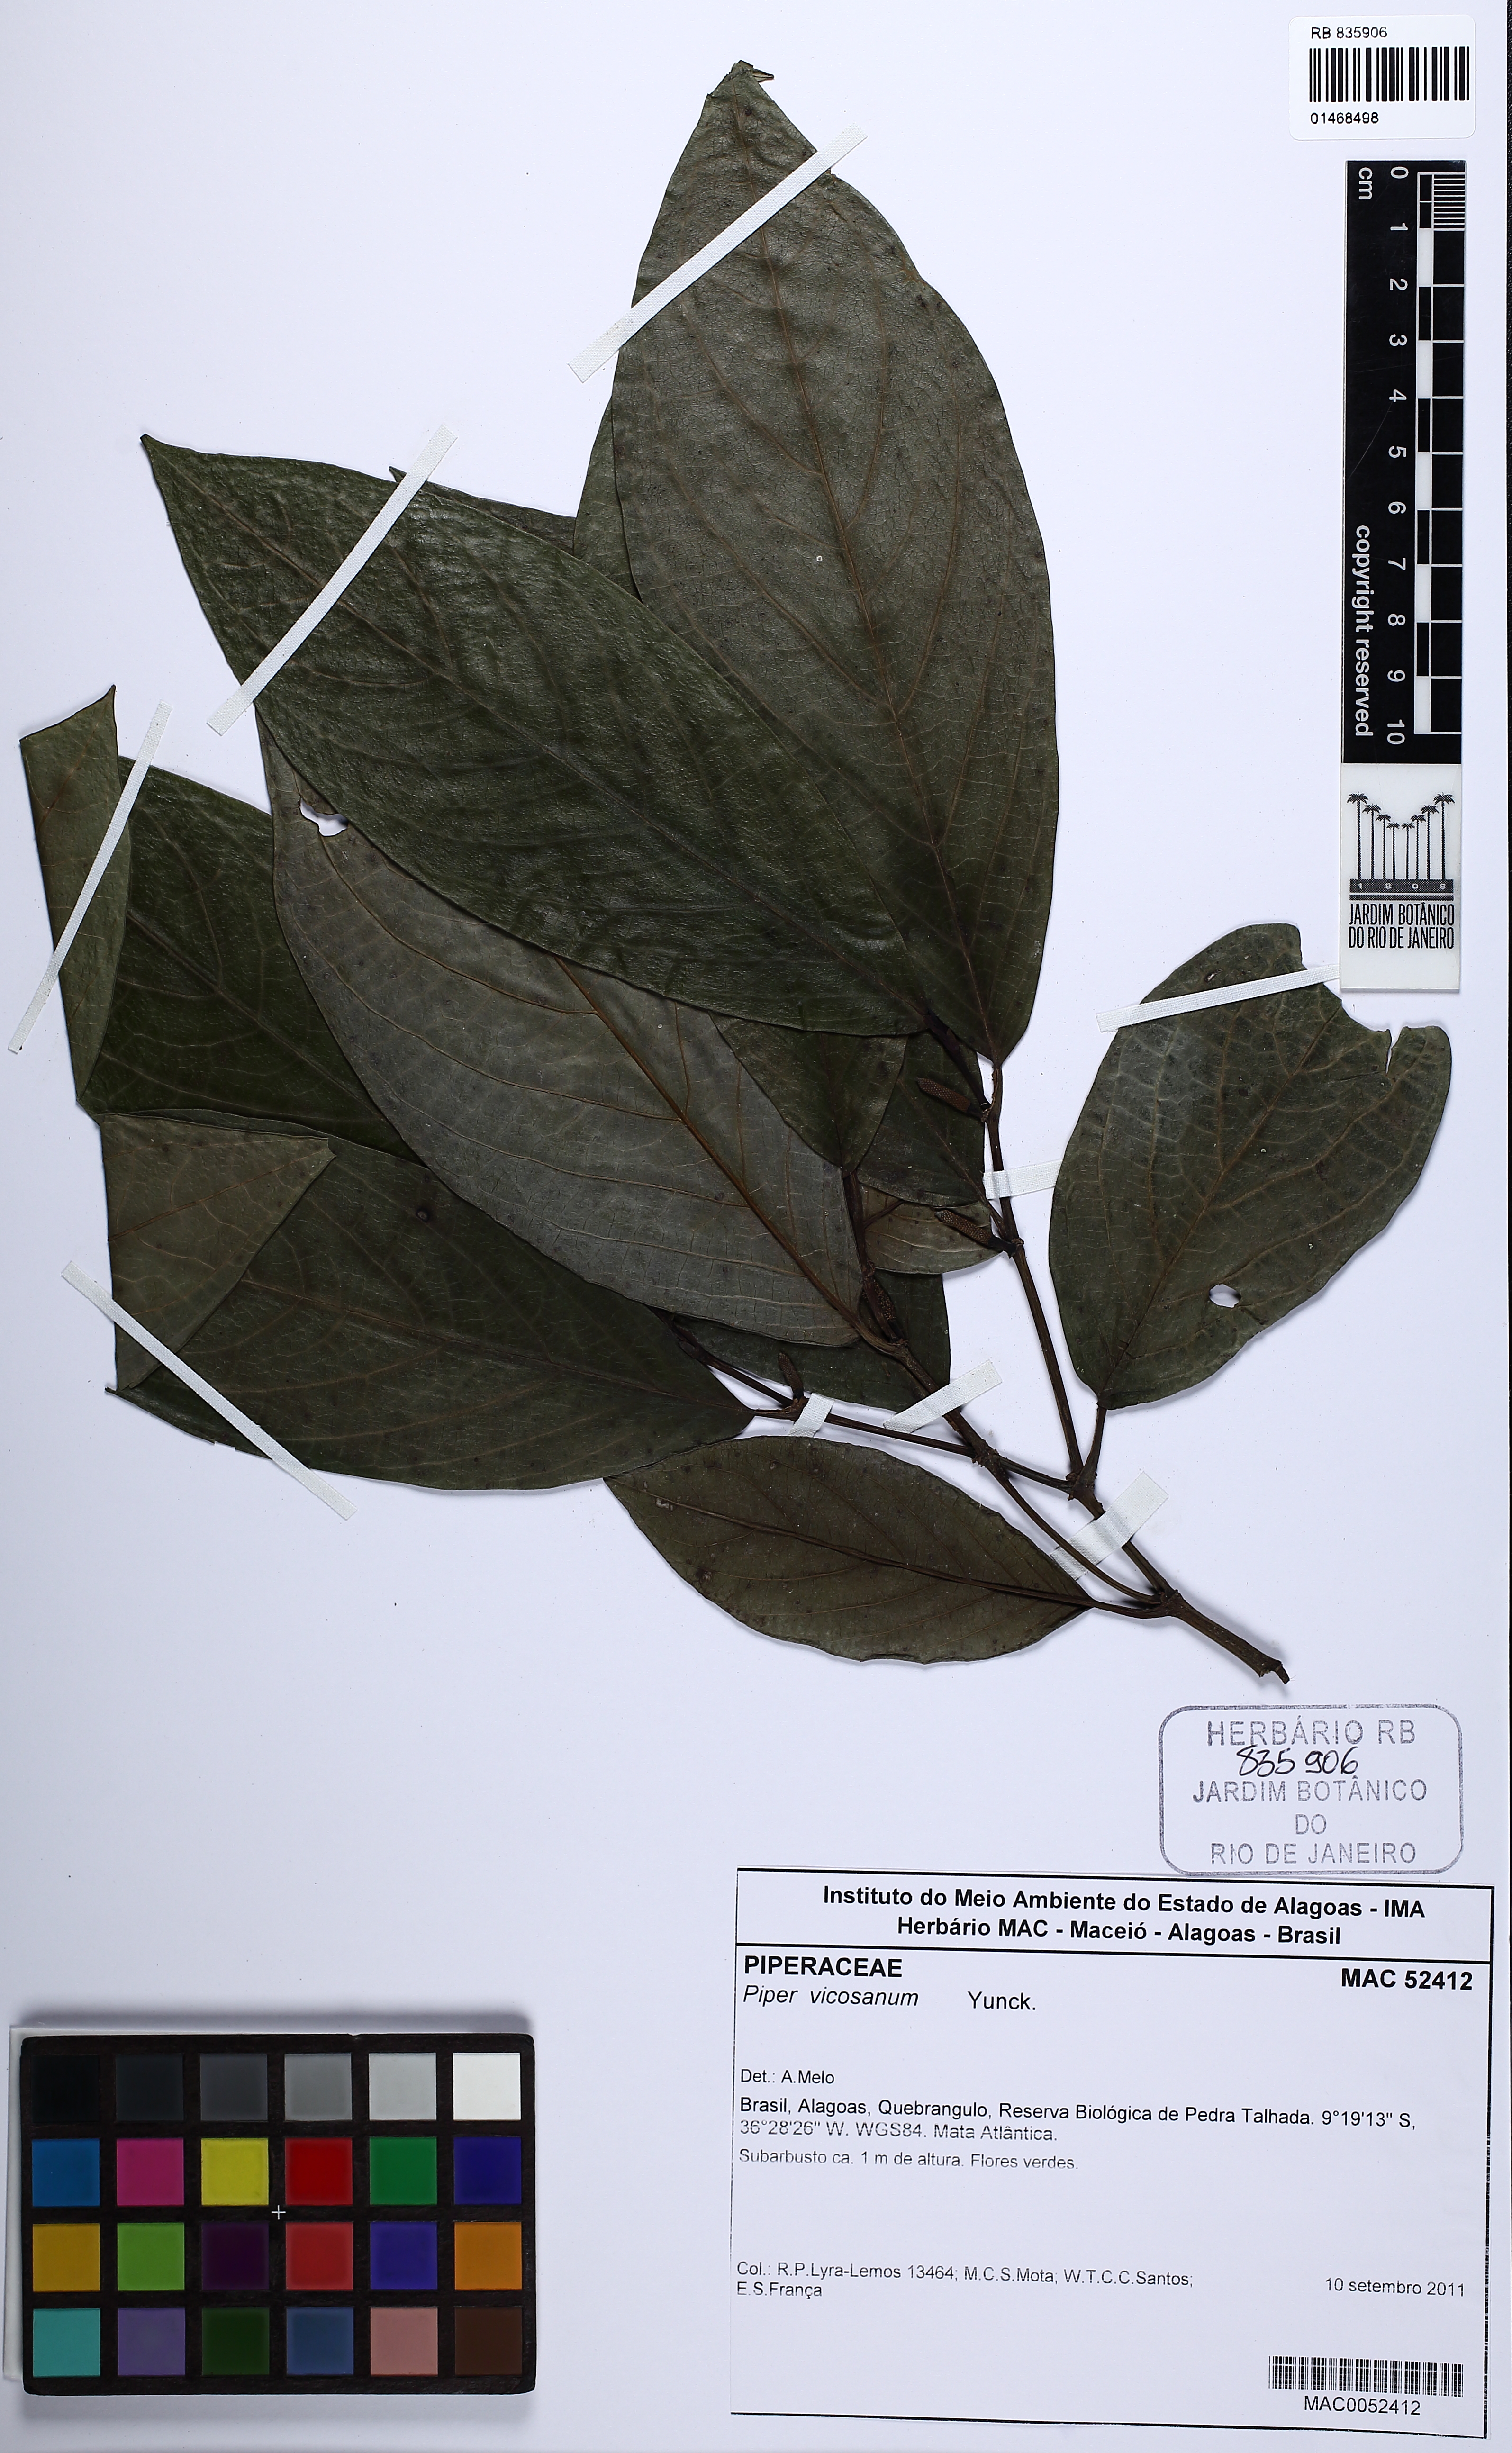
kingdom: Plantae
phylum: Tracheophyta
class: Magnoliopsida
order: Piperales
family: Piperaceae
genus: Piper
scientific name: Piper vicosanum
